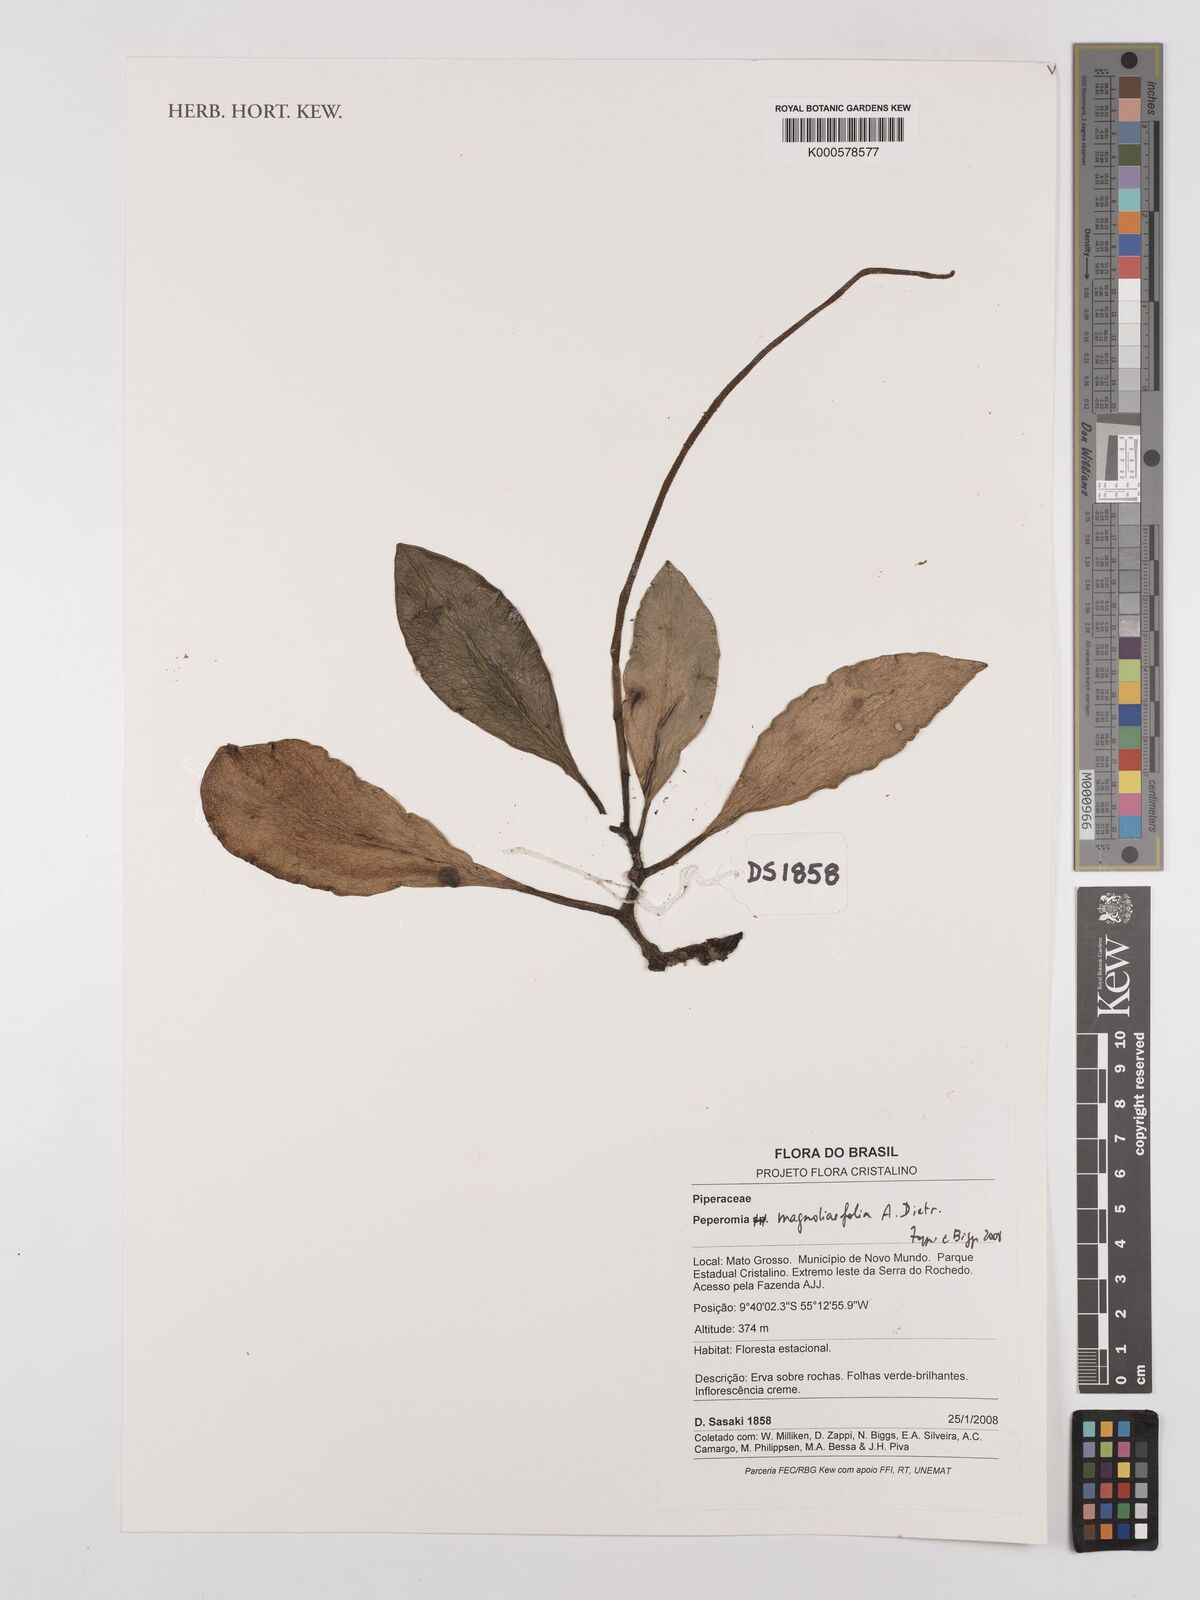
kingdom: Plantae
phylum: Tracheophyta
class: Magnoliopsida
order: Piperales
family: Piperaceae
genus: Peperomia
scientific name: Peperomia
